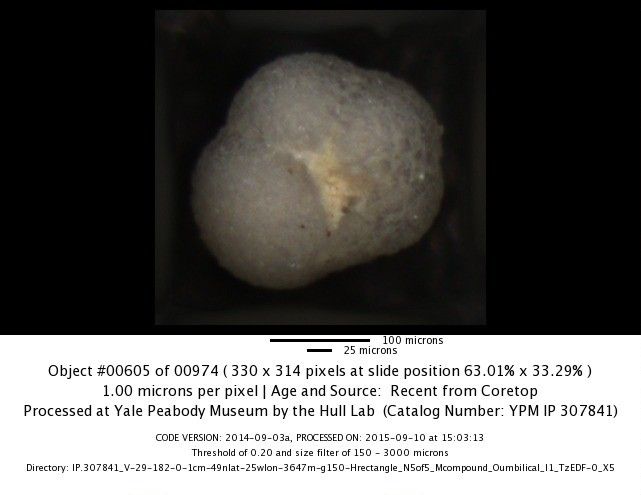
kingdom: Chromista
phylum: Foraminifera
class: Globothalamea
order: Rotaliida
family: Globorotaliidae
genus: Neogloboquadrina
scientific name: Neogloboquadrina incompta
